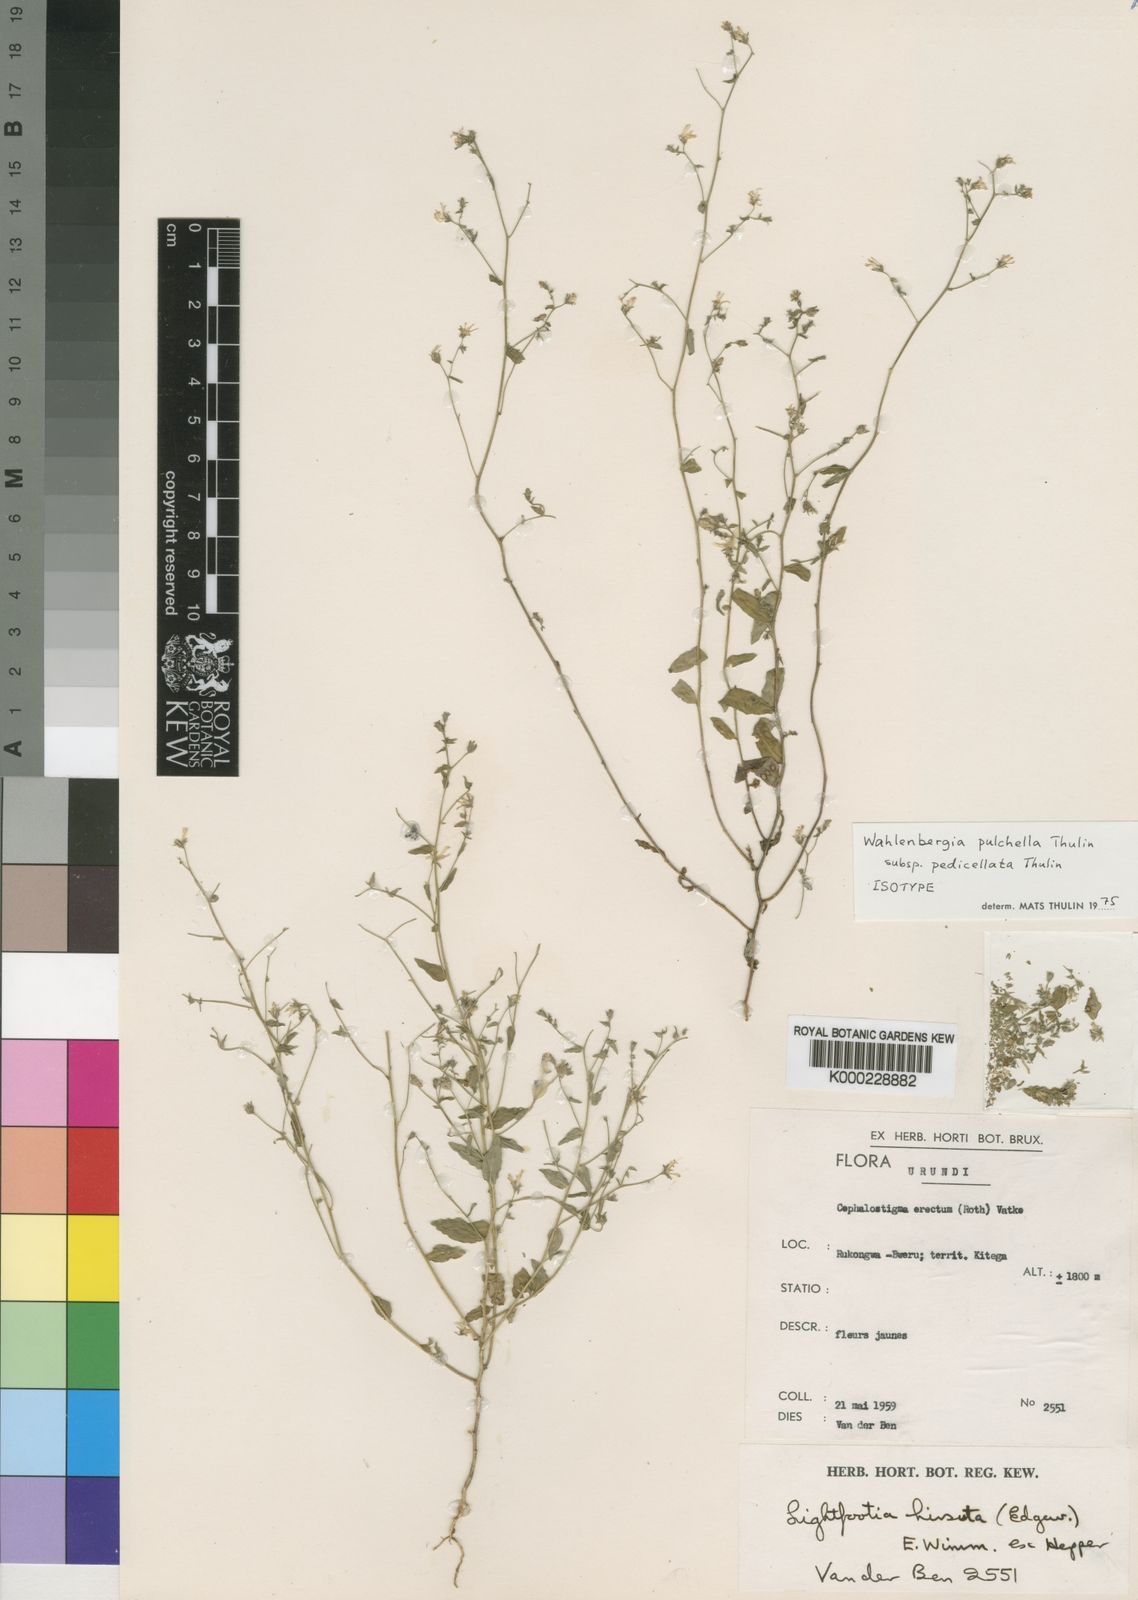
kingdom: Plantae
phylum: Tracheophyta
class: Magnoliopsida
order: Asterales
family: Campanulaceae
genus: Wahlenbergia
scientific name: Wahlenbergia pulchella
